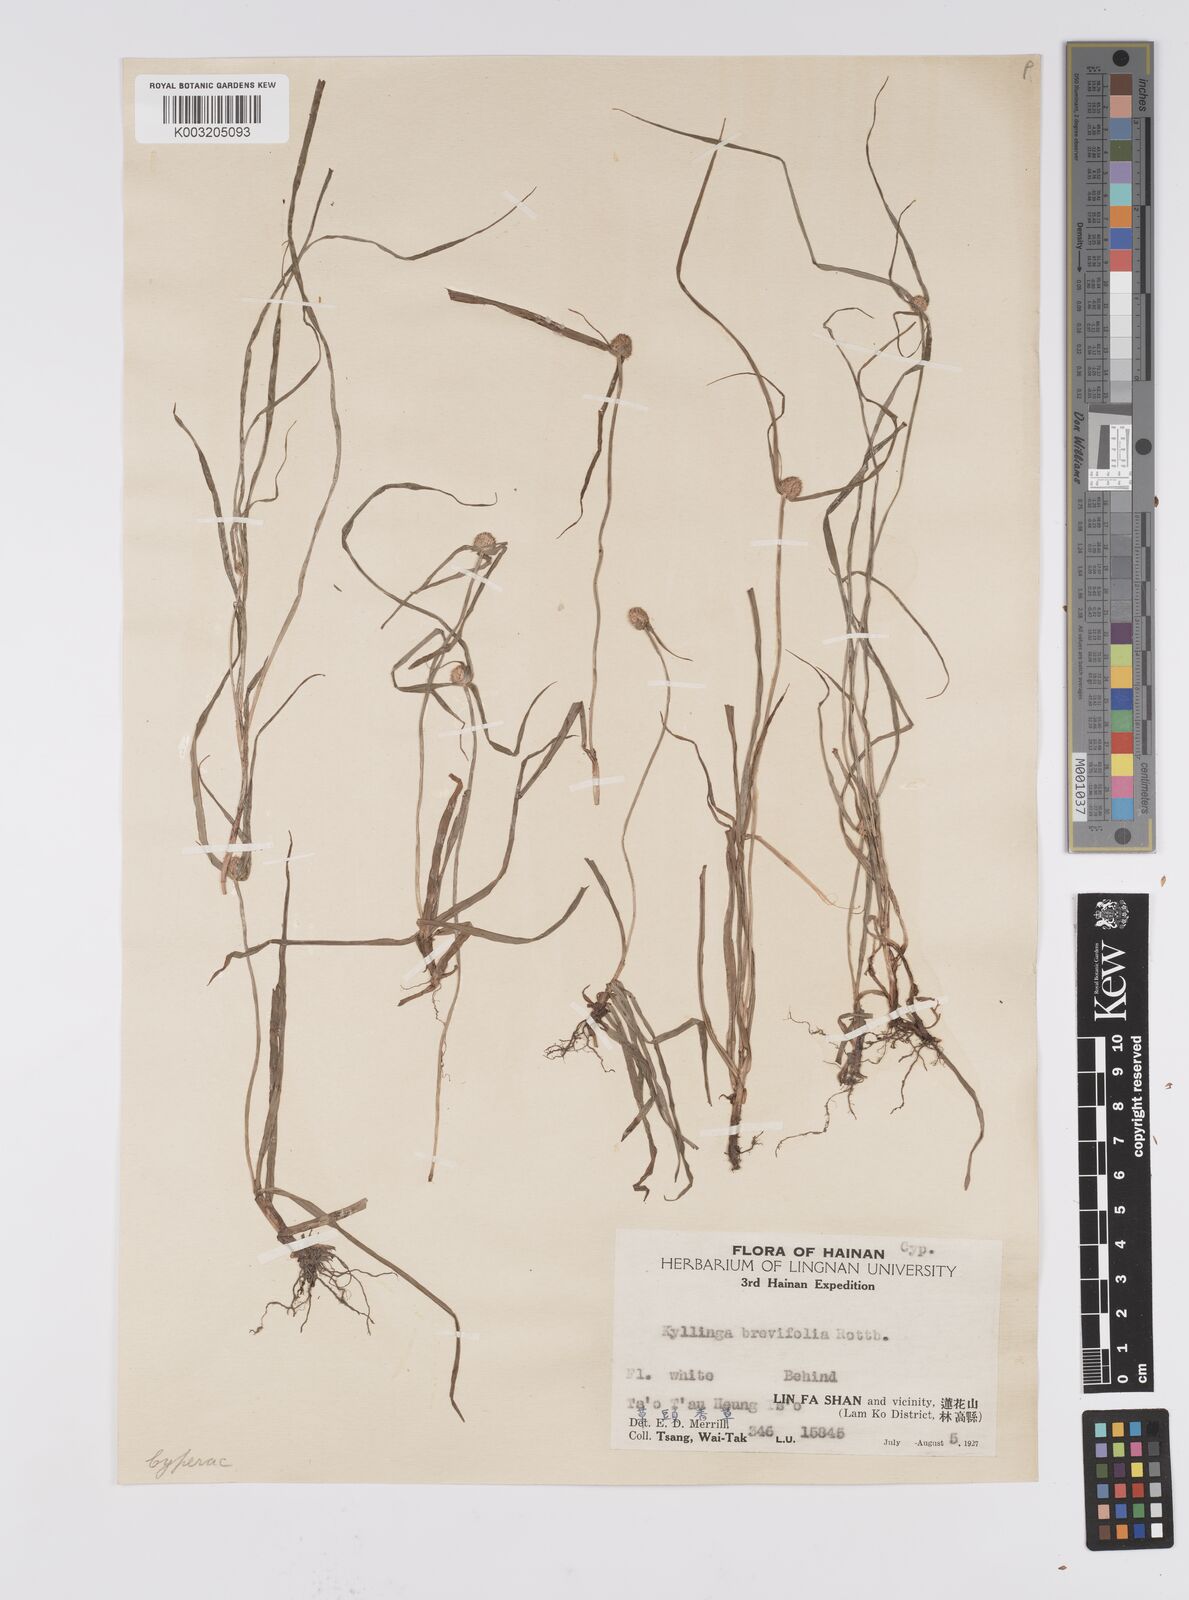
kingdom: Plantae
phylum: Tracheophyta
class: Liliopsida
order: Poales
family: Cyperaceae
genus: Cyperus
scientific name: Cyperus brevifolius
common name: Globe kyllinga
